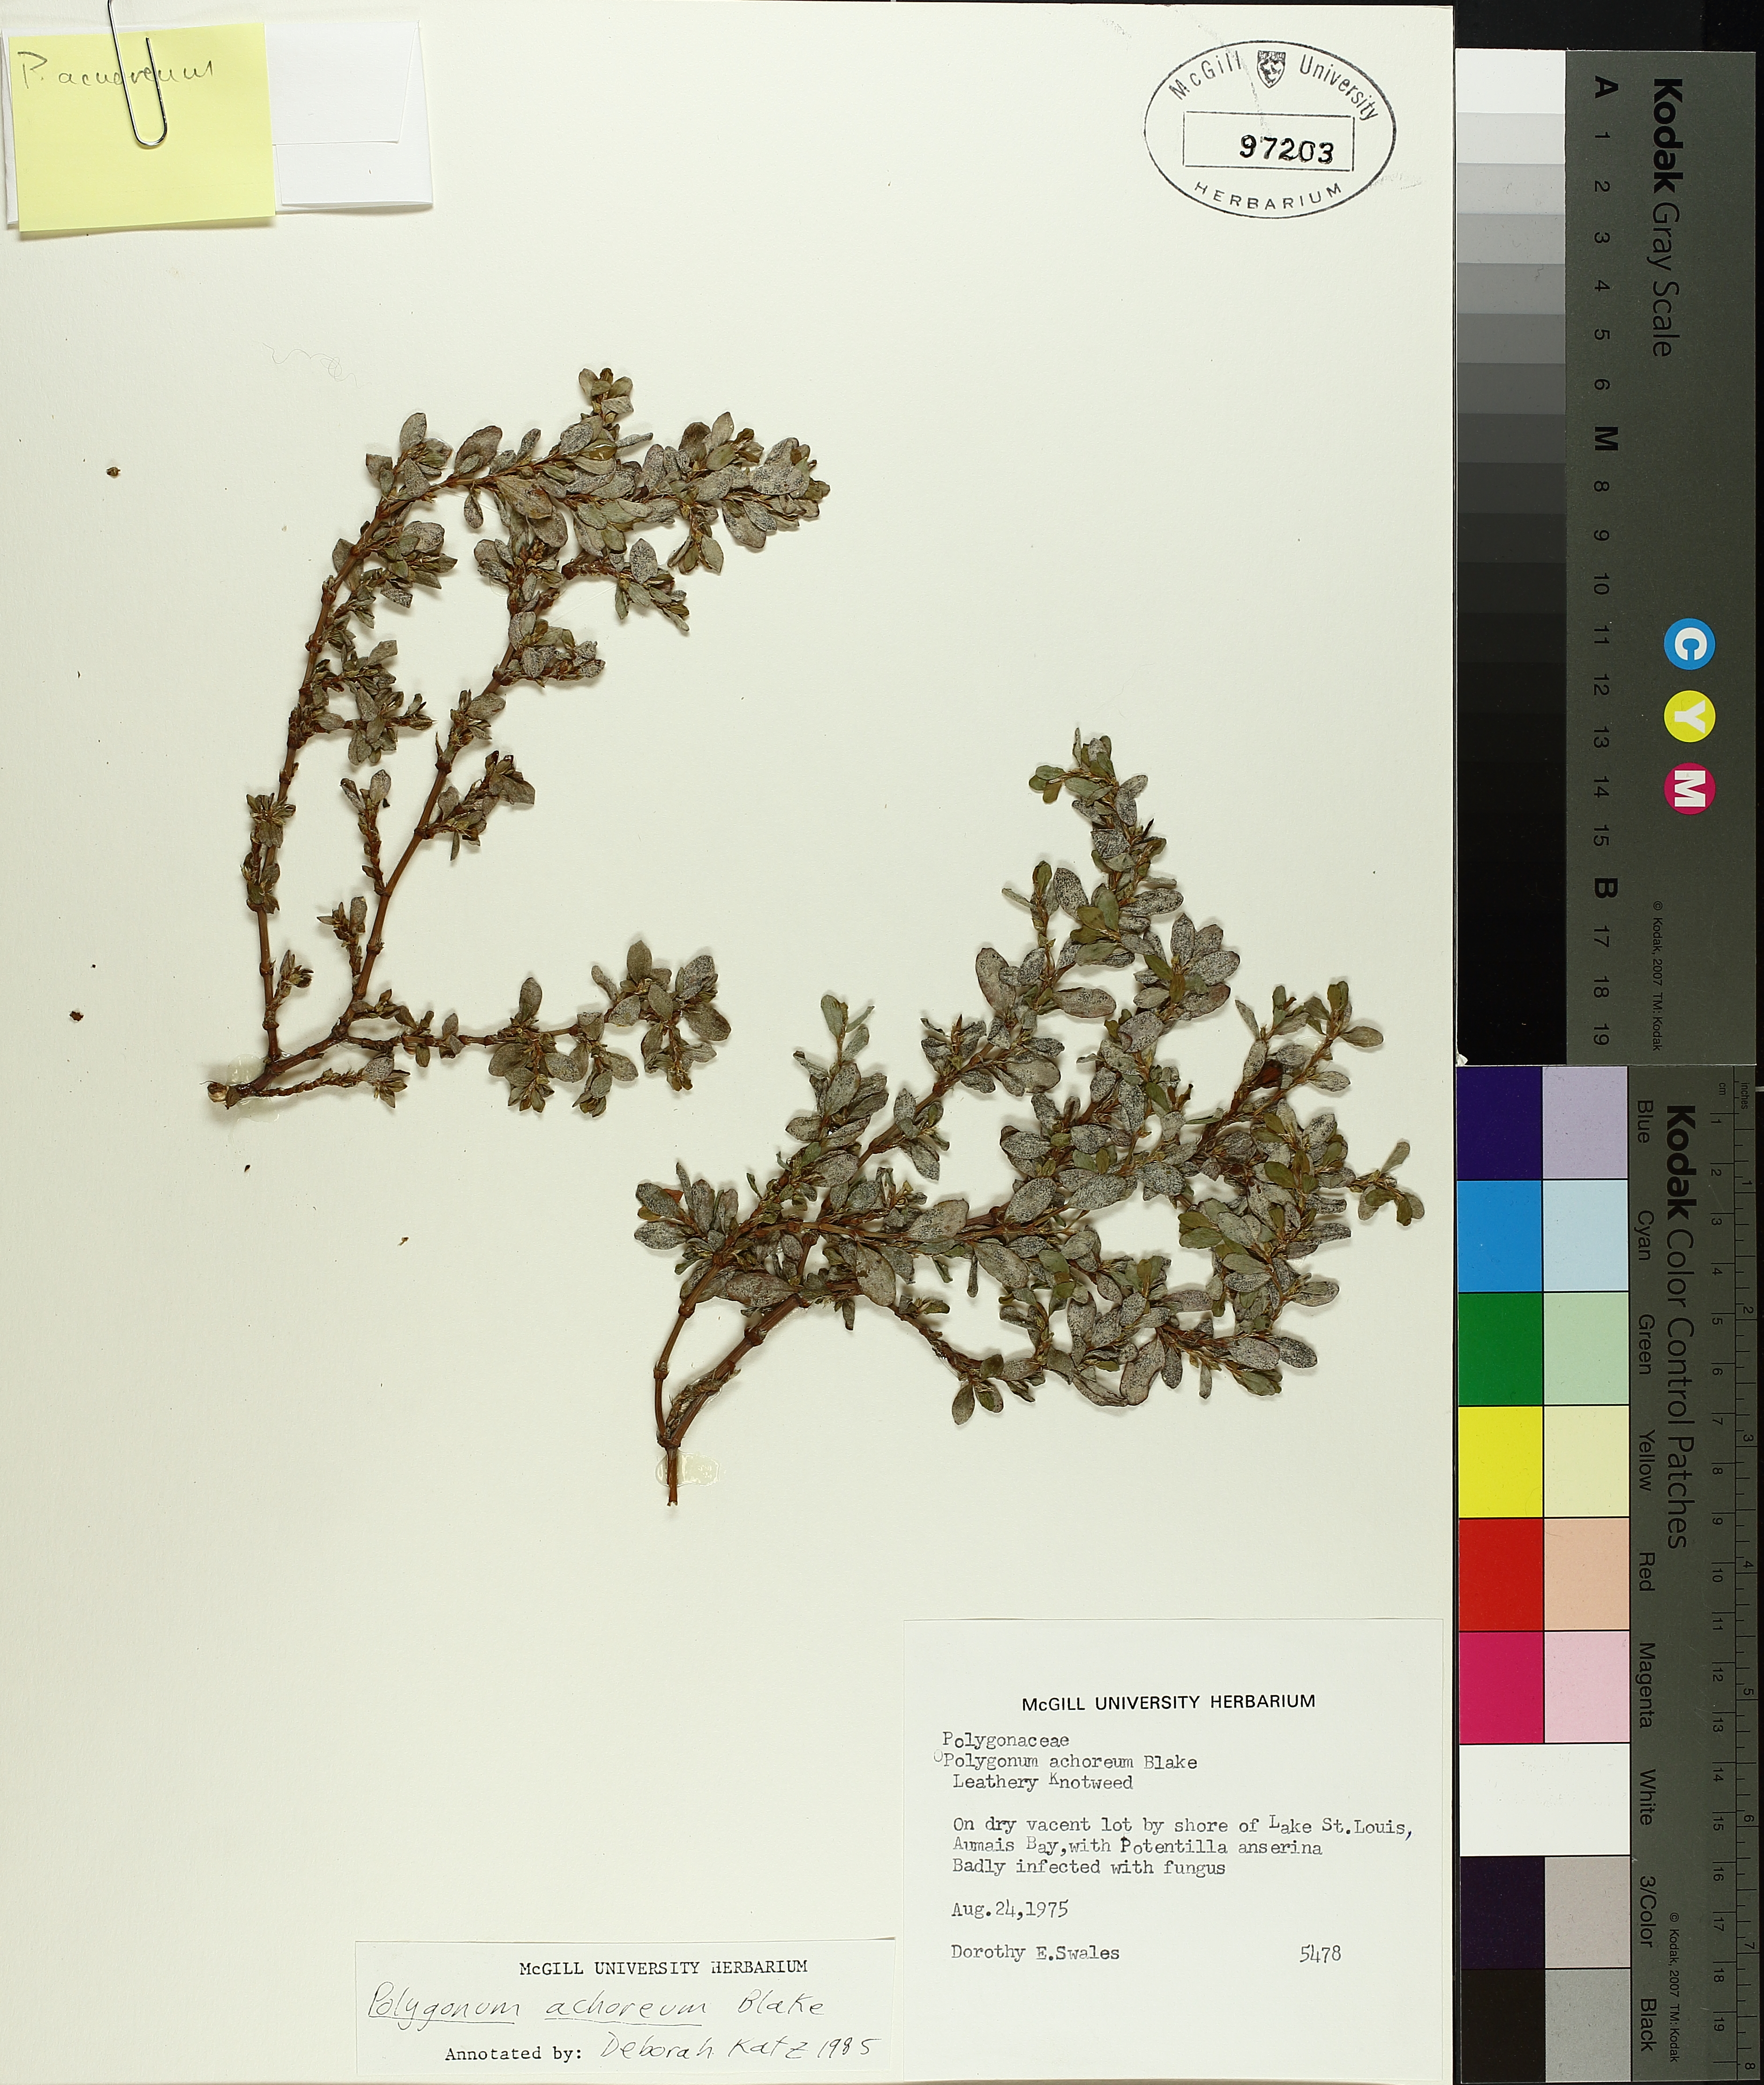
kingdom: Plantae
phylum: Tracheophyta
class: Magnoliopsida
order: Caryophyllales
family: Polygonaceae
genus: Polygonum
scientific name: Polygonum achoreum
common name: Striate knotweed
